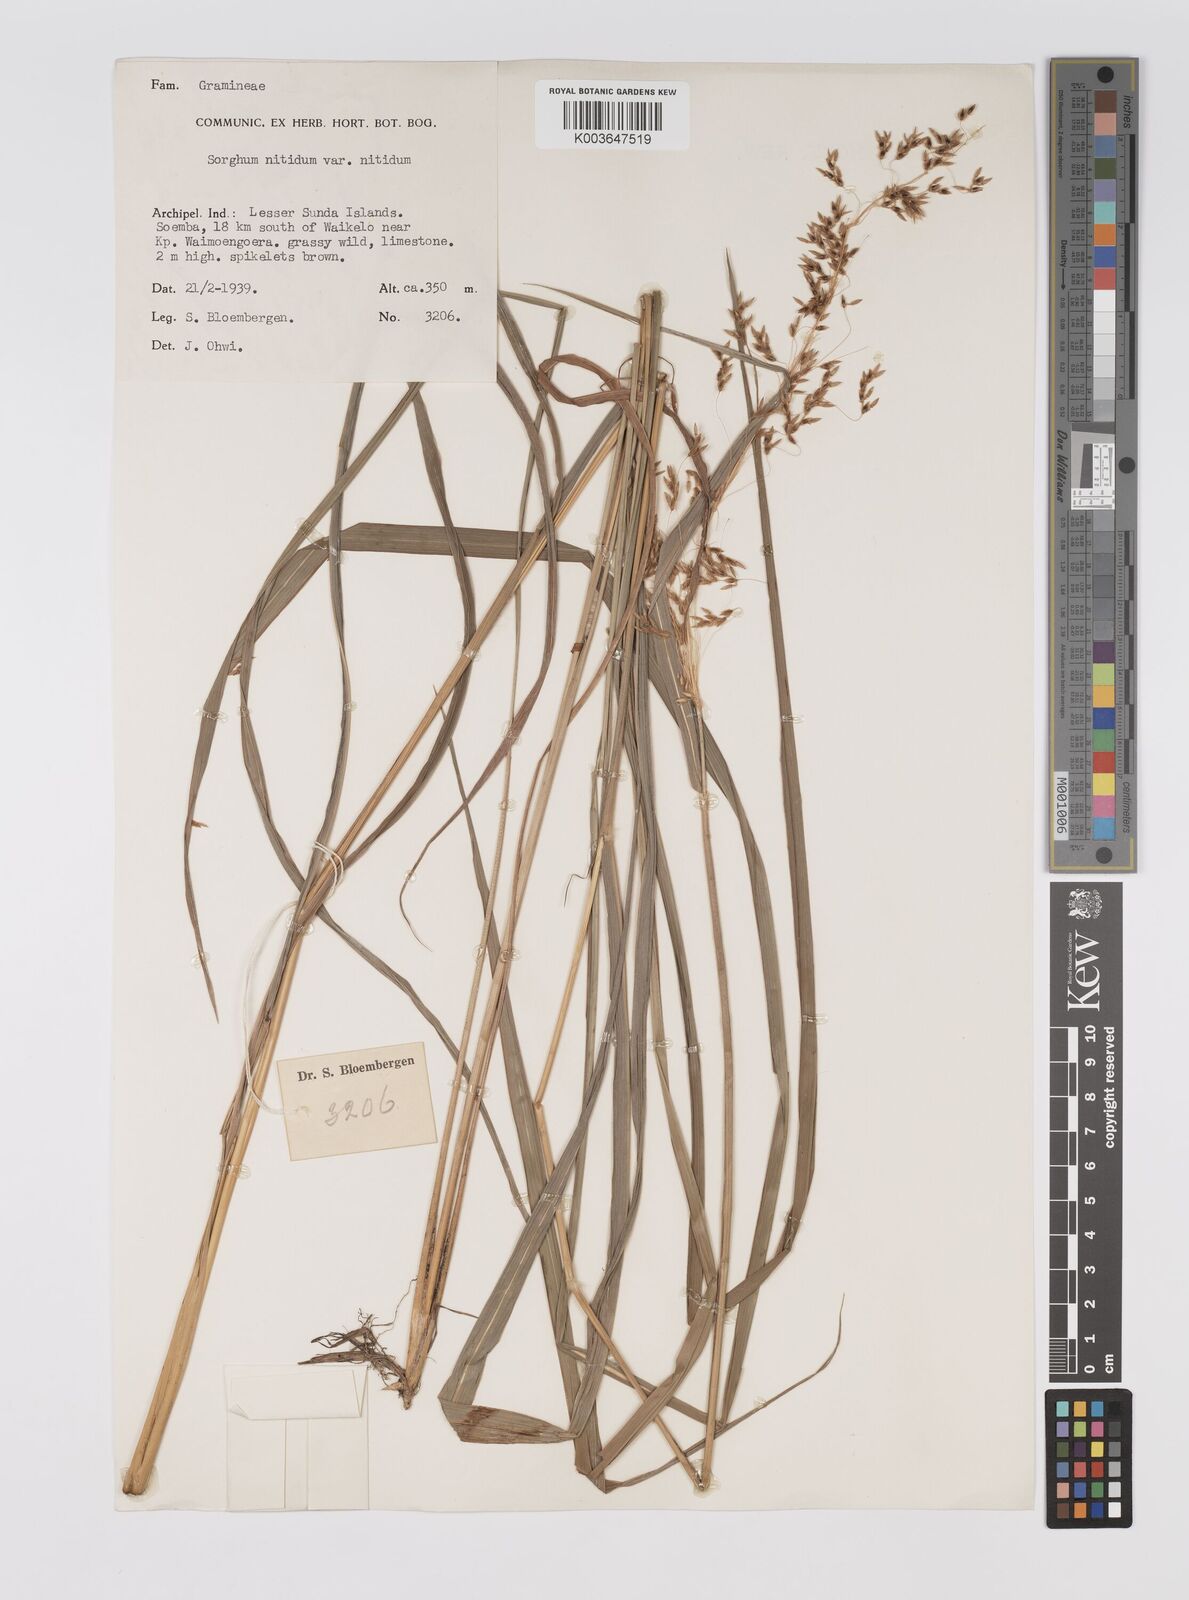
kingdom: Plantae
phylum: Tracheophyta
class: Liliopsida
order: Poales
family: Poaceae
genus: Sorghum
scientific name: Sorghum nitidum
